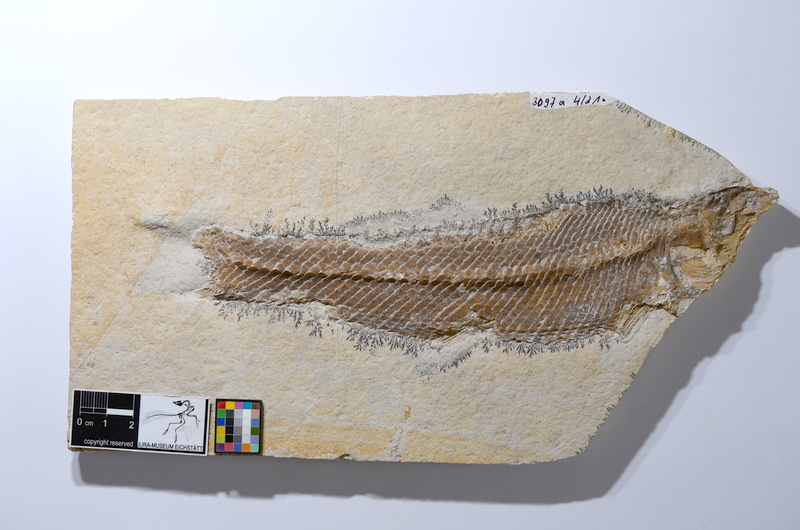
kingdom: Animalia
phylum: Chordata
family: Ophiopsiellidae
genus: Ophiopsiella
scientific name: Ophiopsiella attenuata
